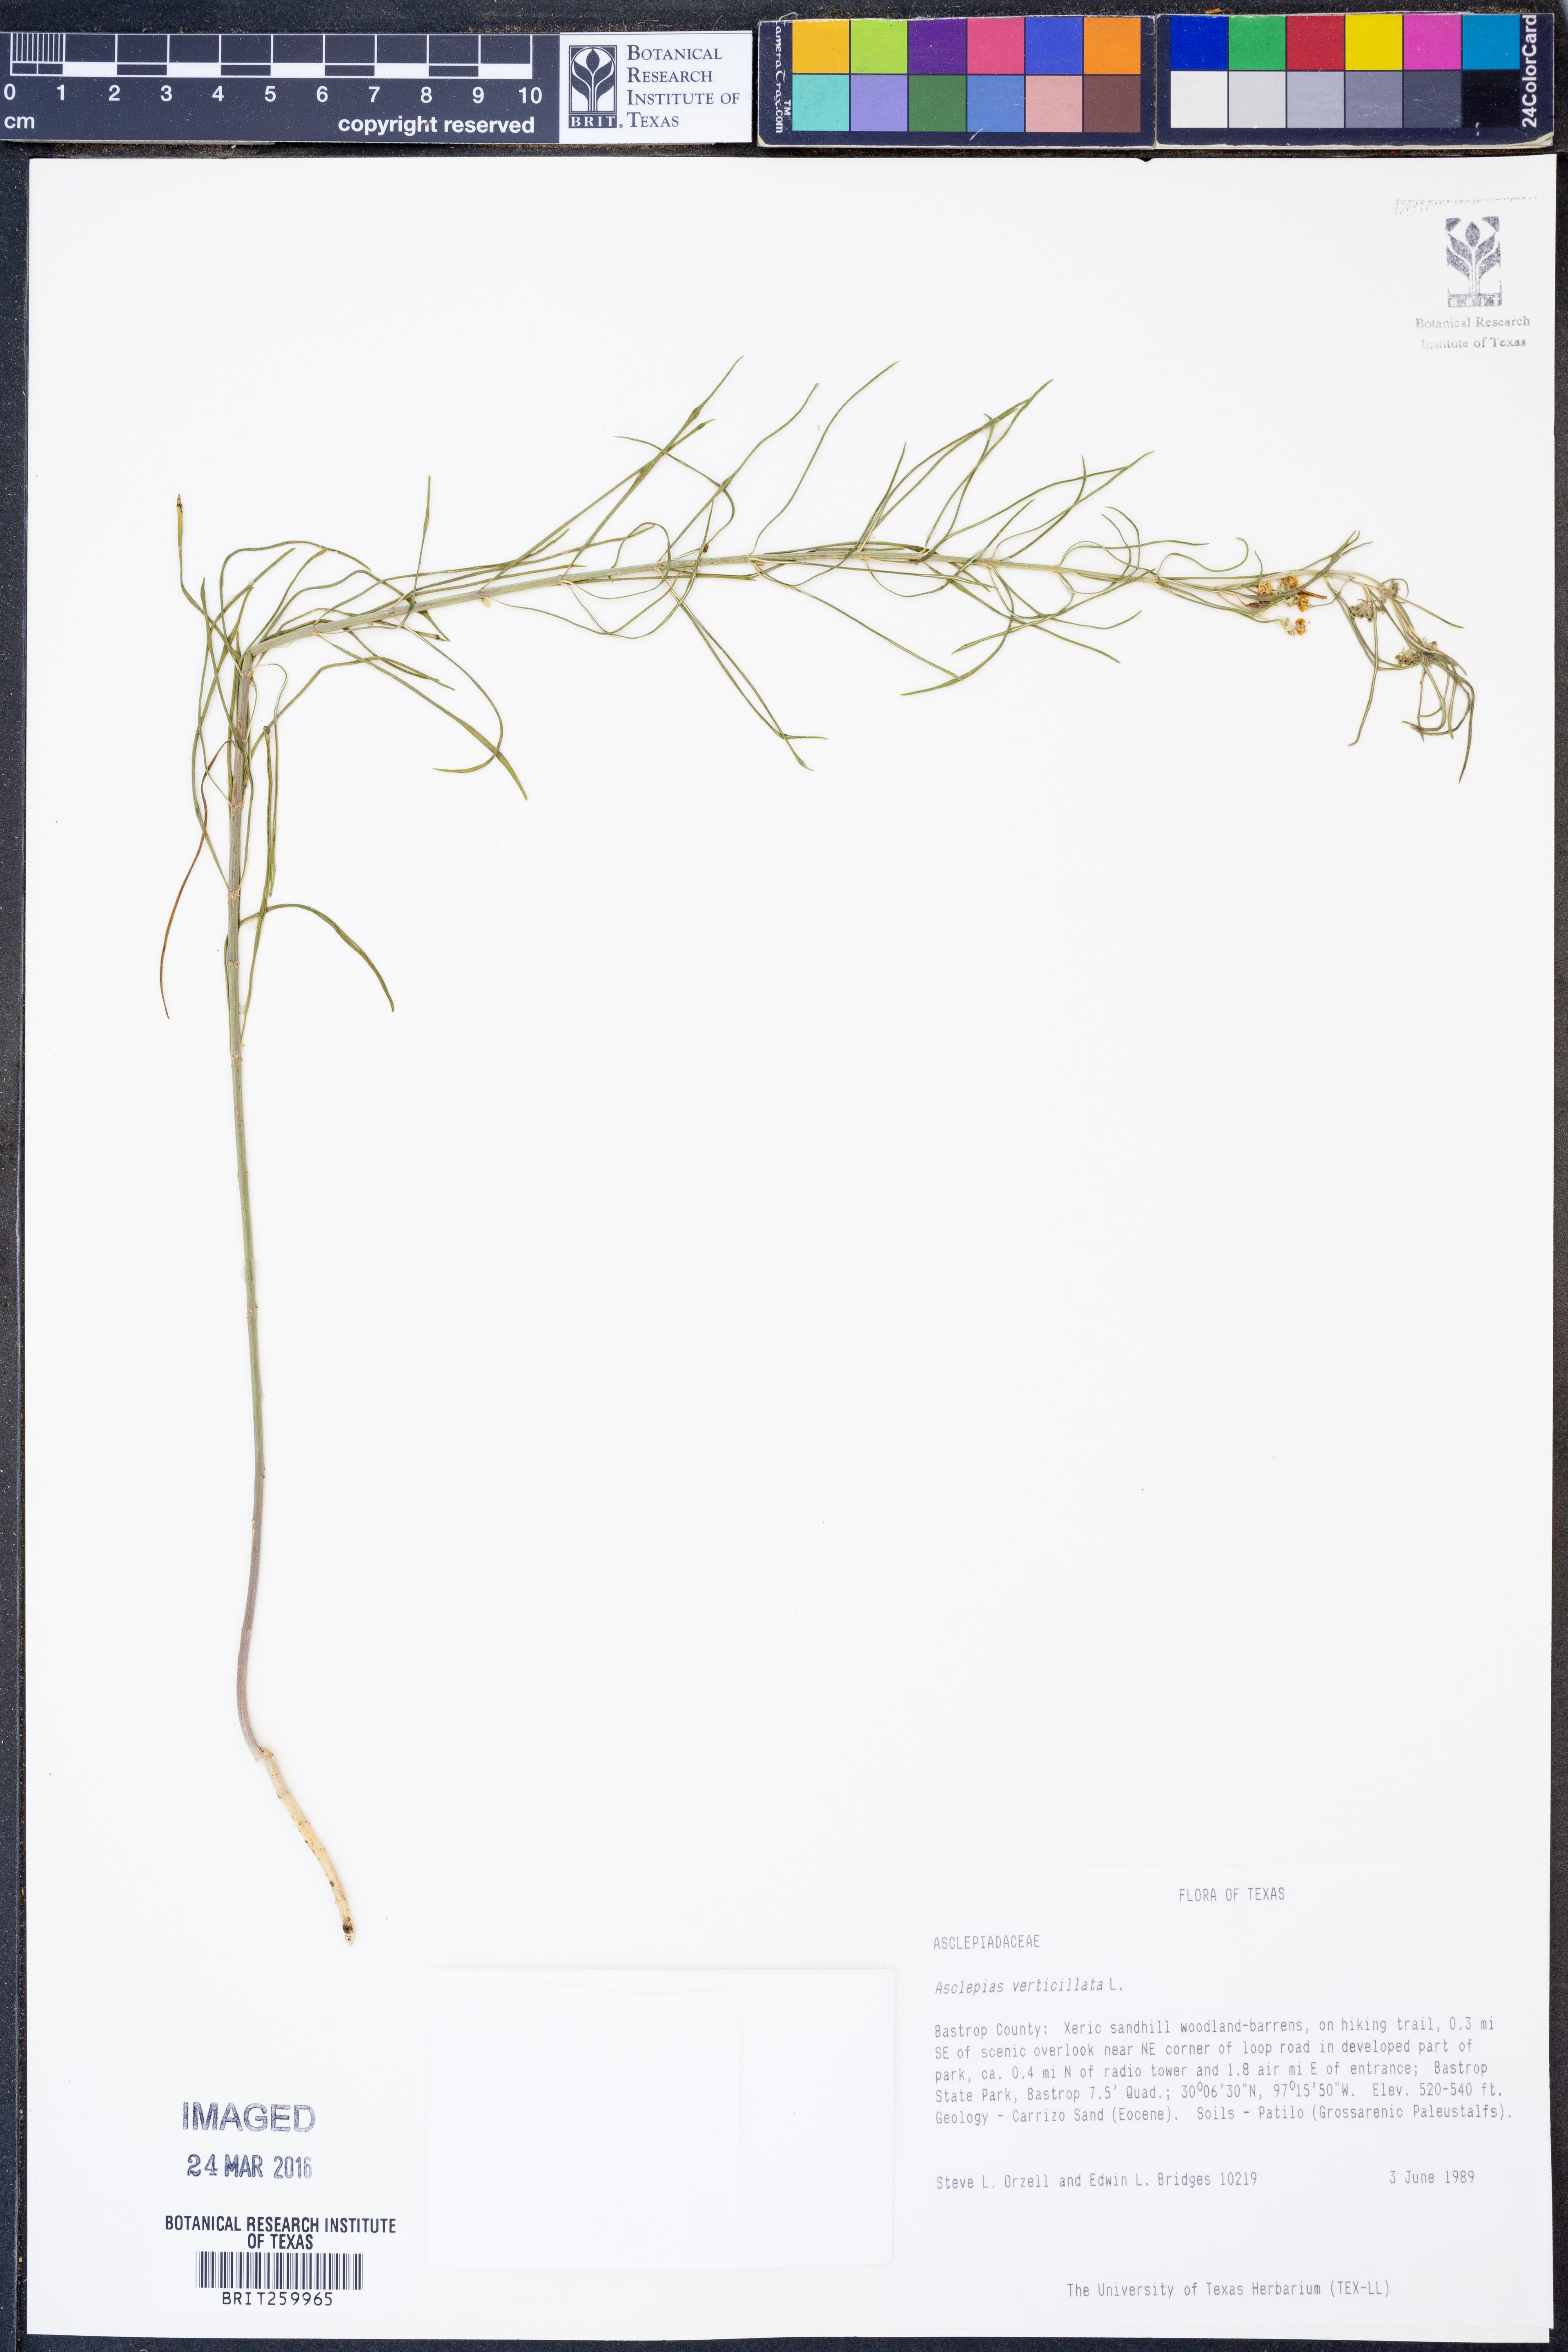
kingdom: Plantae
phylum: Tracheophyta
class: Magnoliopsida
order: Gentianales
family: Apocynaceae
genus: Asclepias
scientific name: Asclepias verticillata
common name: Eastern whorled milkweed
